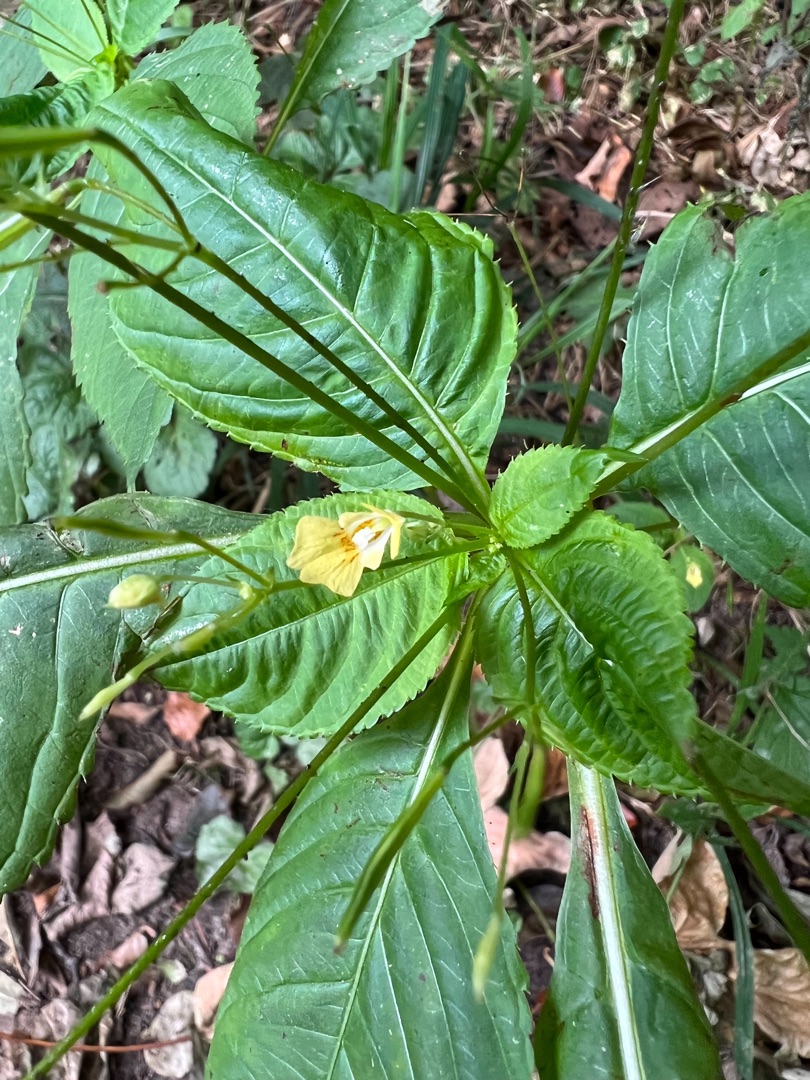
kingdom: Plantae
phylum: Tracheophyta
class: Magnoliopsida
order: Ericales
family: Balsaminaceae
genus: Impatiens
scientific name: Impatiens parviflora
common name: Småblomstret balsamin
